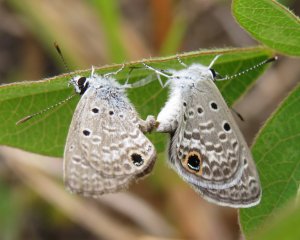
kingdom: Animalia
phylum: Arthropoda
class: Insecta
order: Lepidoptera
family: Lycaenidae
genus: Hemiargus
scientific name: Hemiargus ceraunus
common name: Ceraunus Blue
